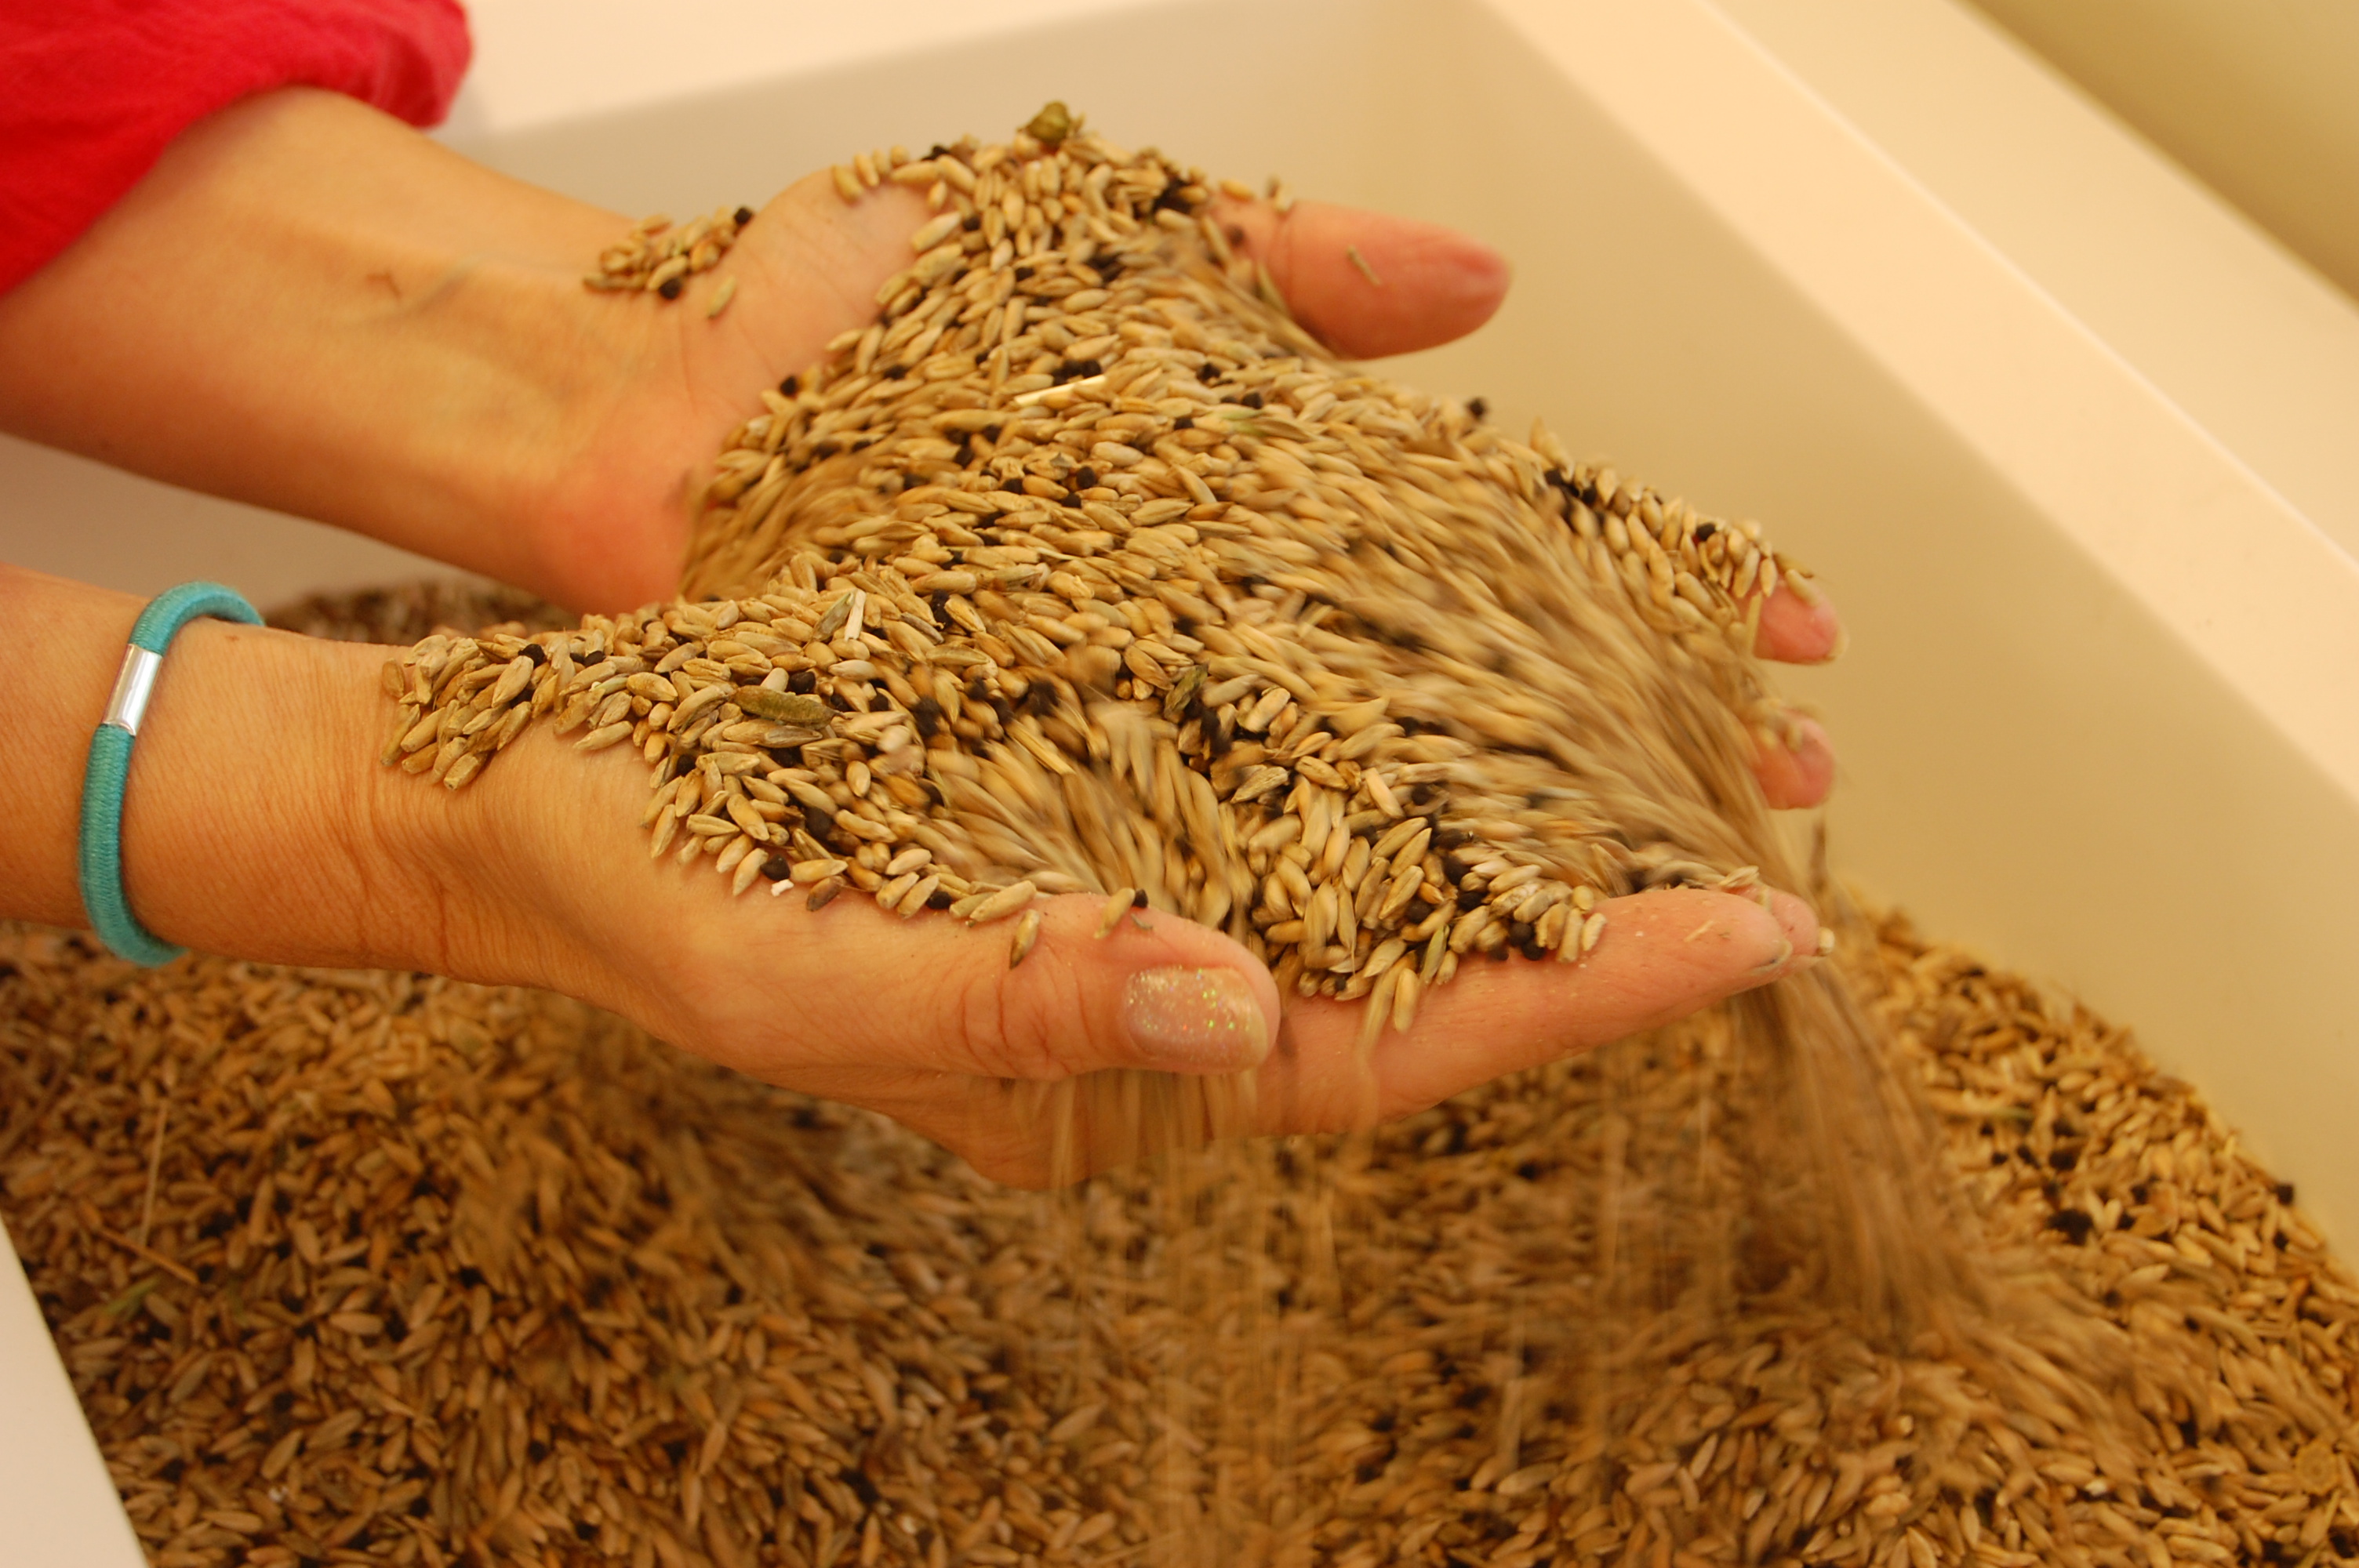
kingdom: Plantae
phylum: Tracheophyta
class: Liliopsida
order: Poales
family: Poaceae
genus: Secale
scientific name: Secale cereale
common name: Rye
